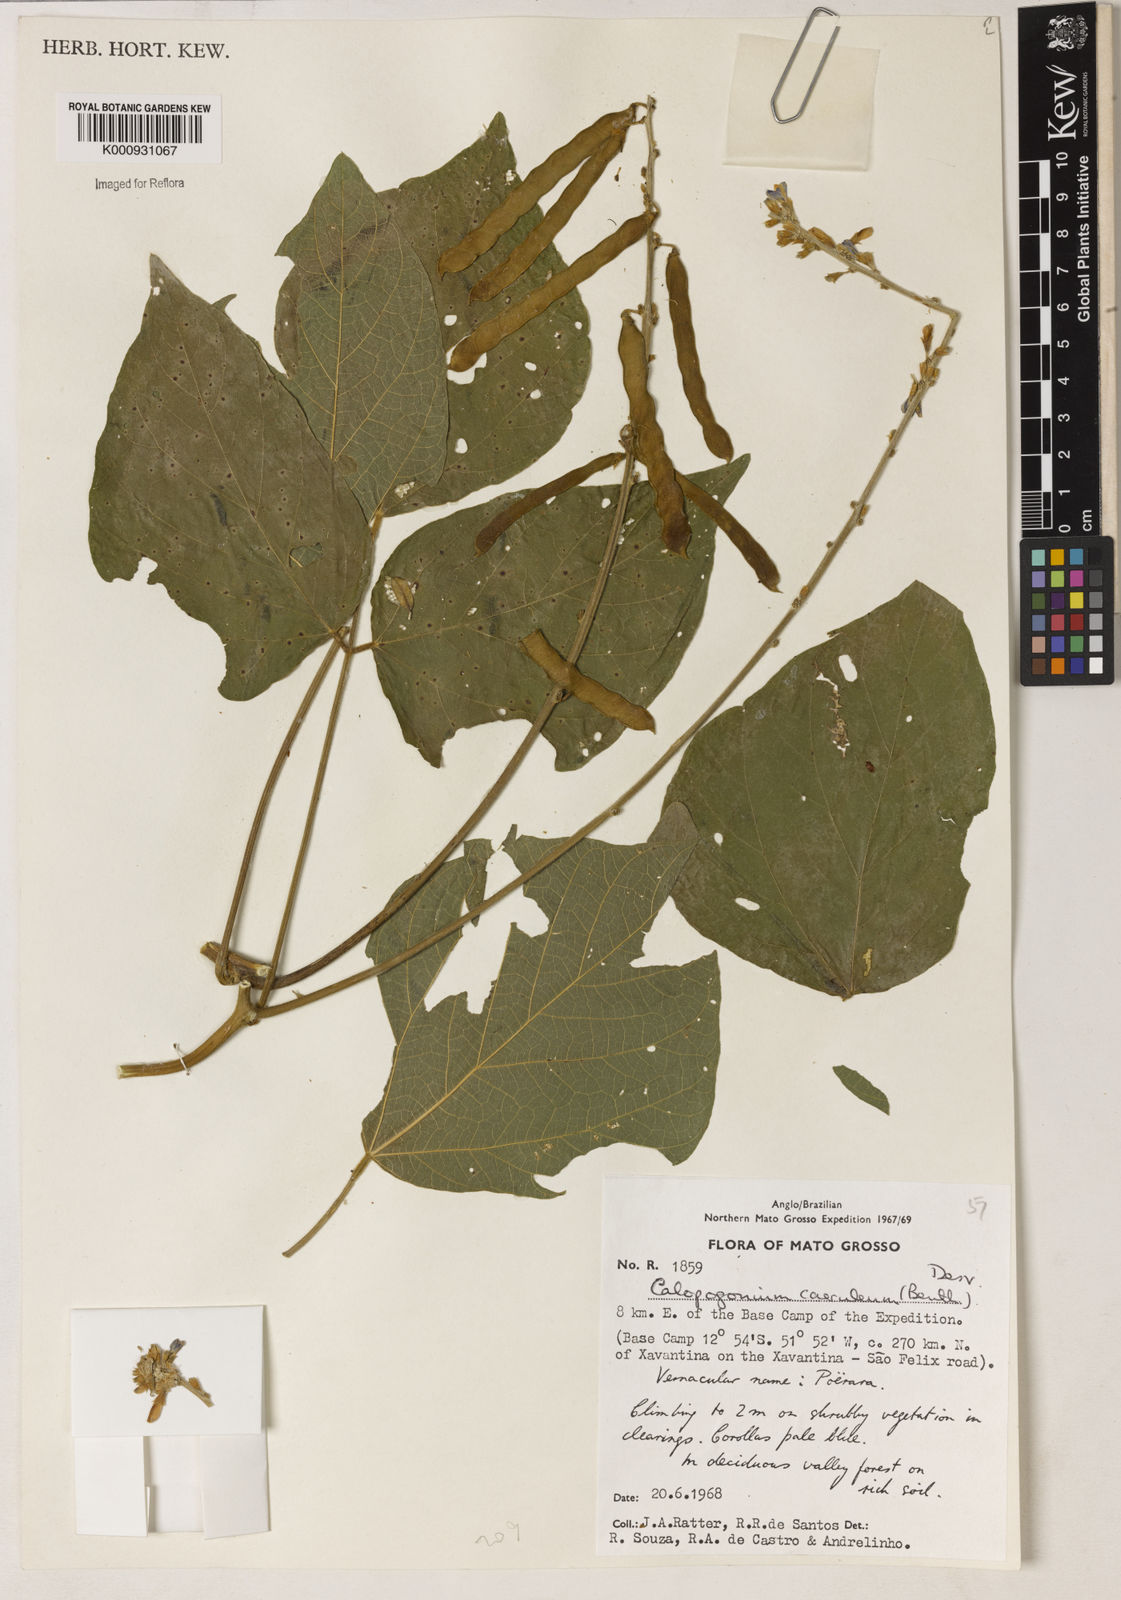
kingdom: Plantae
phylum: Tracheophyta
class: Magnoliopsida
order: Fabales
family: Fabaceae
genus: Calopogonium
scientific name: Calopogonium caeruleum
